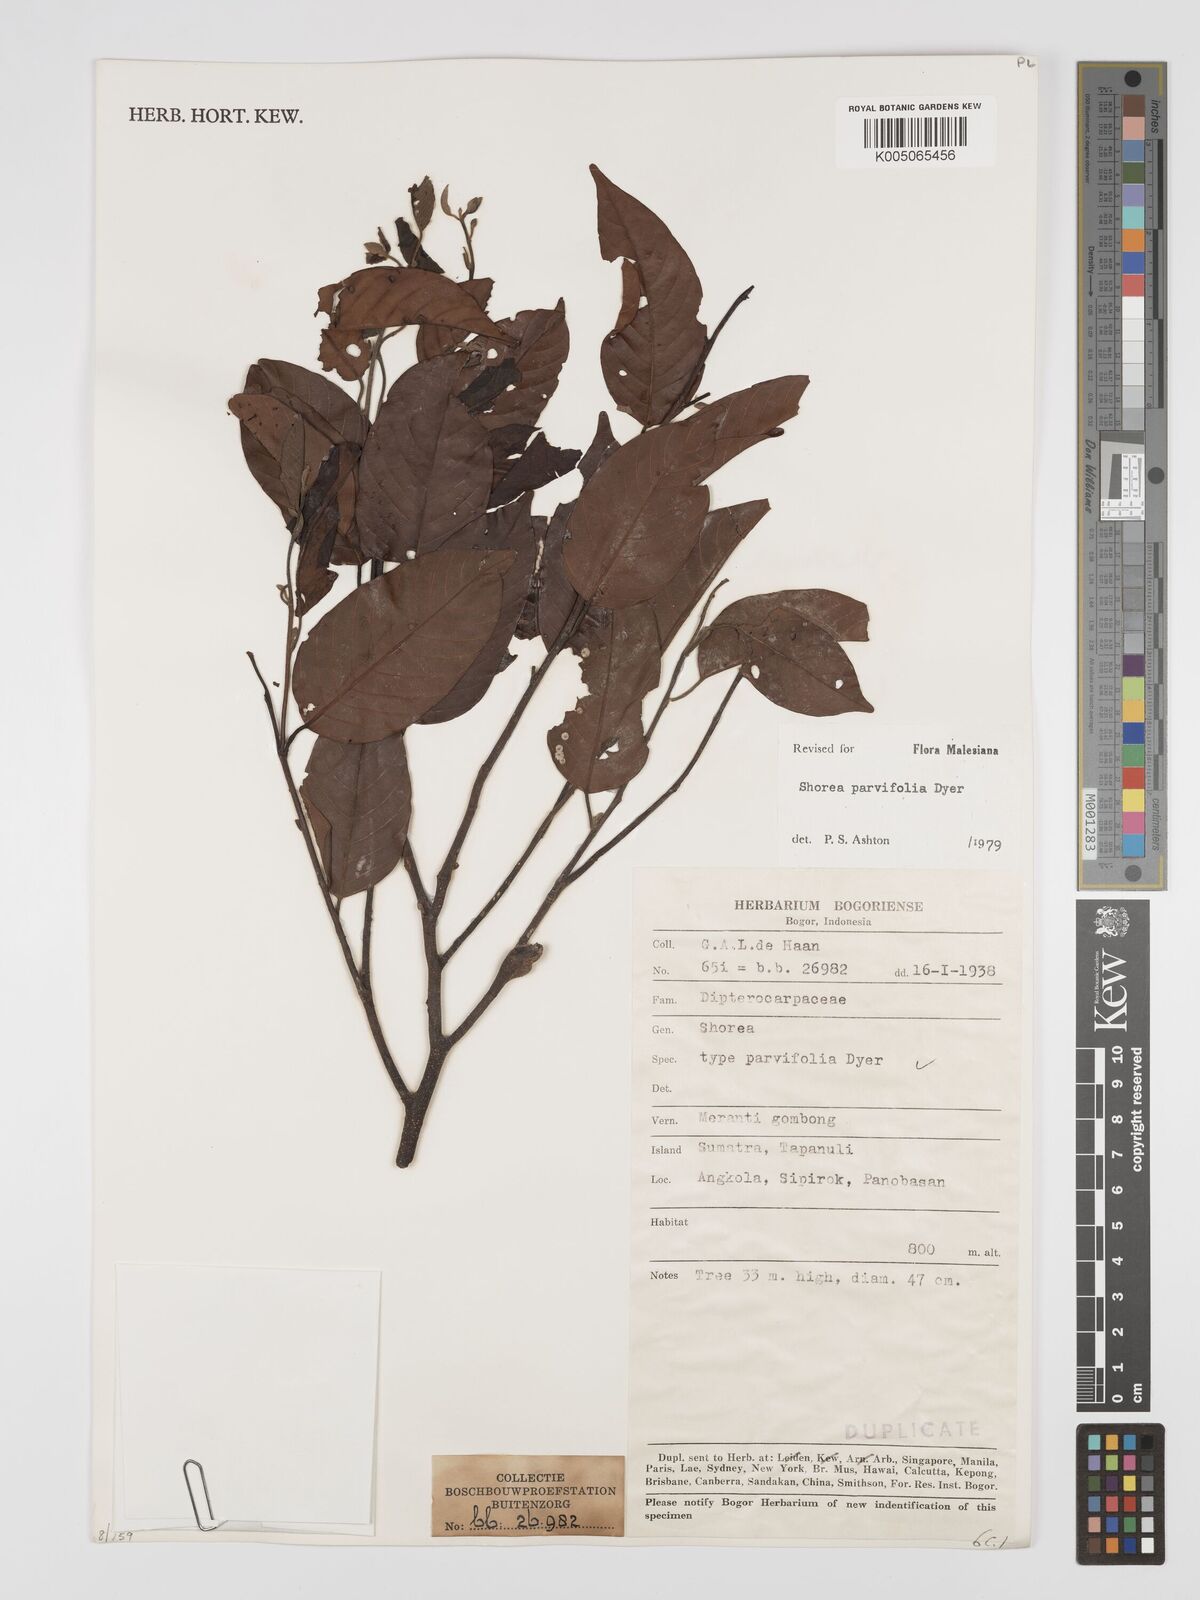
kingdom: Plantae
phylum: Tracheophyta
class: Magnoliopsida
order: Malvales
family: Dipterocarpaceae
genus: Shorea
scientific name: Shorea parvifolia
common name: Light red meranti
